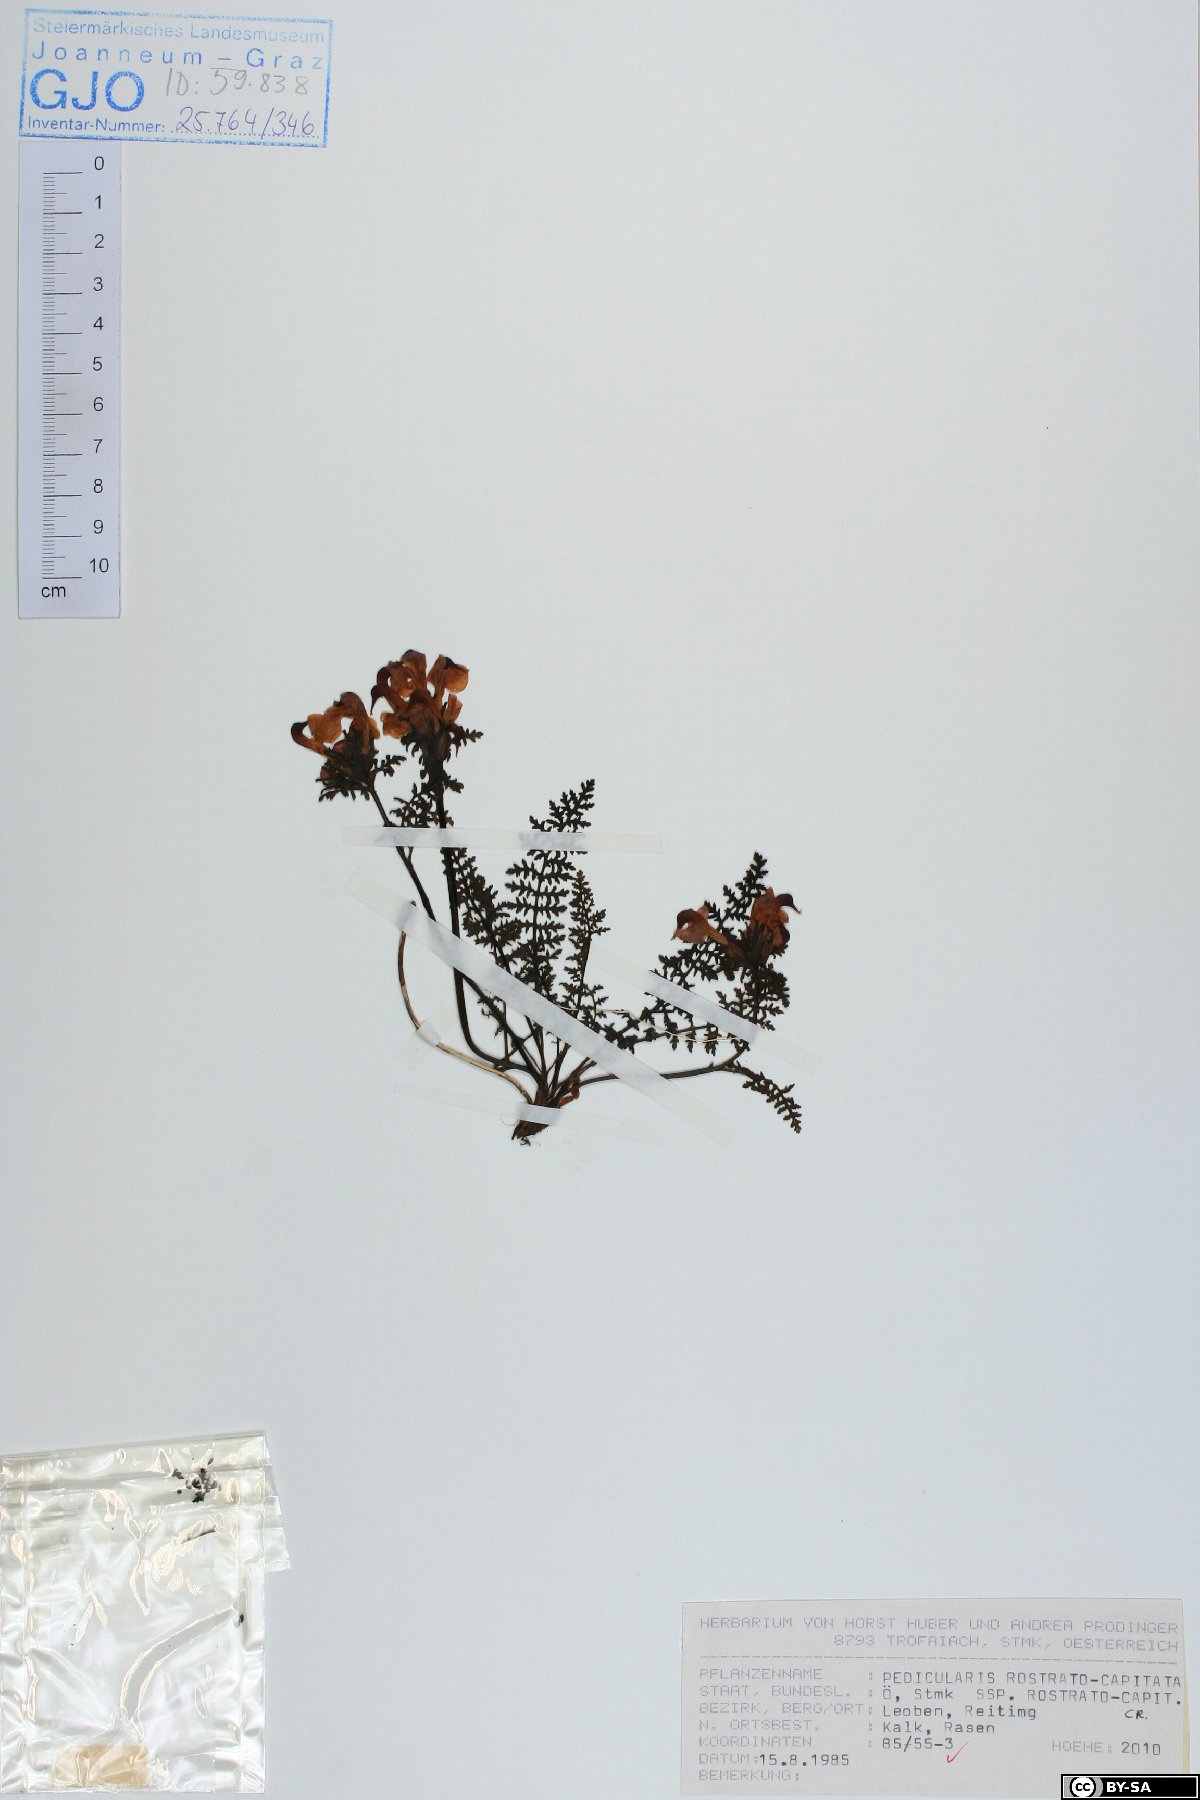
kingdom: Plantae
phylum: Tracheophyta
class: Magnoliopsida
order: Lamiales
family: Orobanchaceae
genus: Pedicularis
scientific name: Pedicularis rostratocapitata
